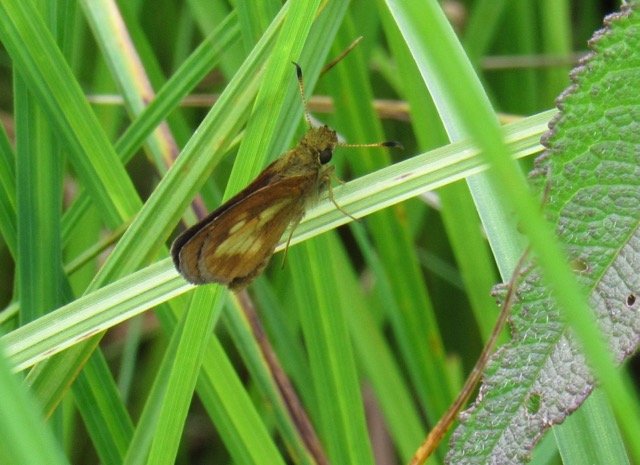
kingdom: Animalia
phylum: Arthropoda
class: Insecta
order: Lepidoptera
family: Hesperiidae
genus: Poanes
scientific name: Poanes massasoit
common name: Mulberry Wing
